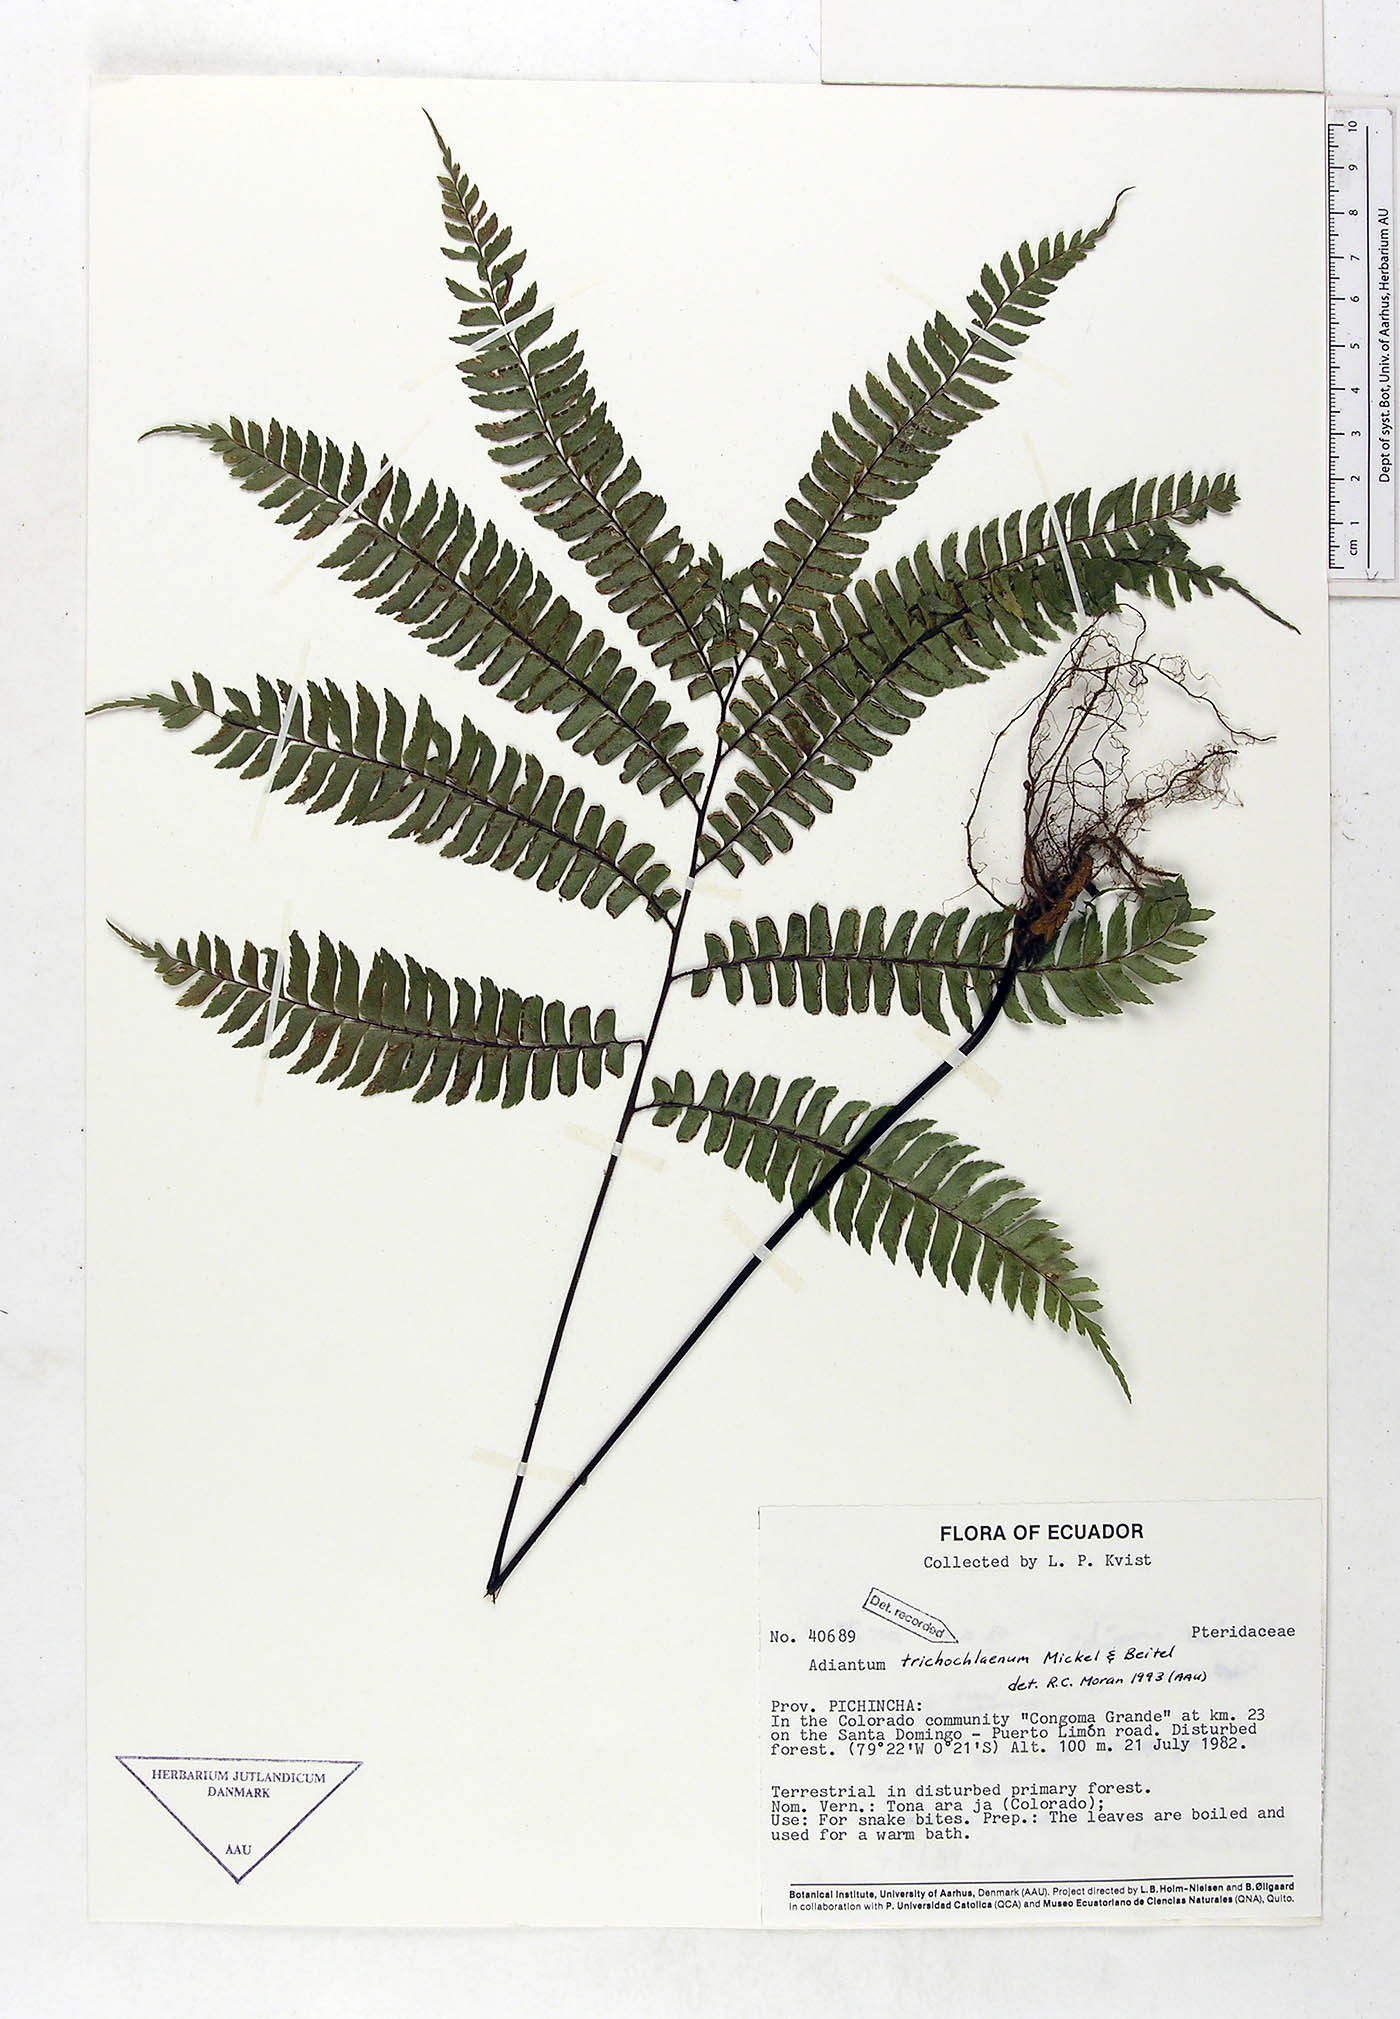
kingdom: Plantae
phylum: Tracheophyta
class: Polypodiopsida
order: Polypodiales
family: Pteridaceae
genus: Adiantum
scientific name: Adiantum trichochlaenum
